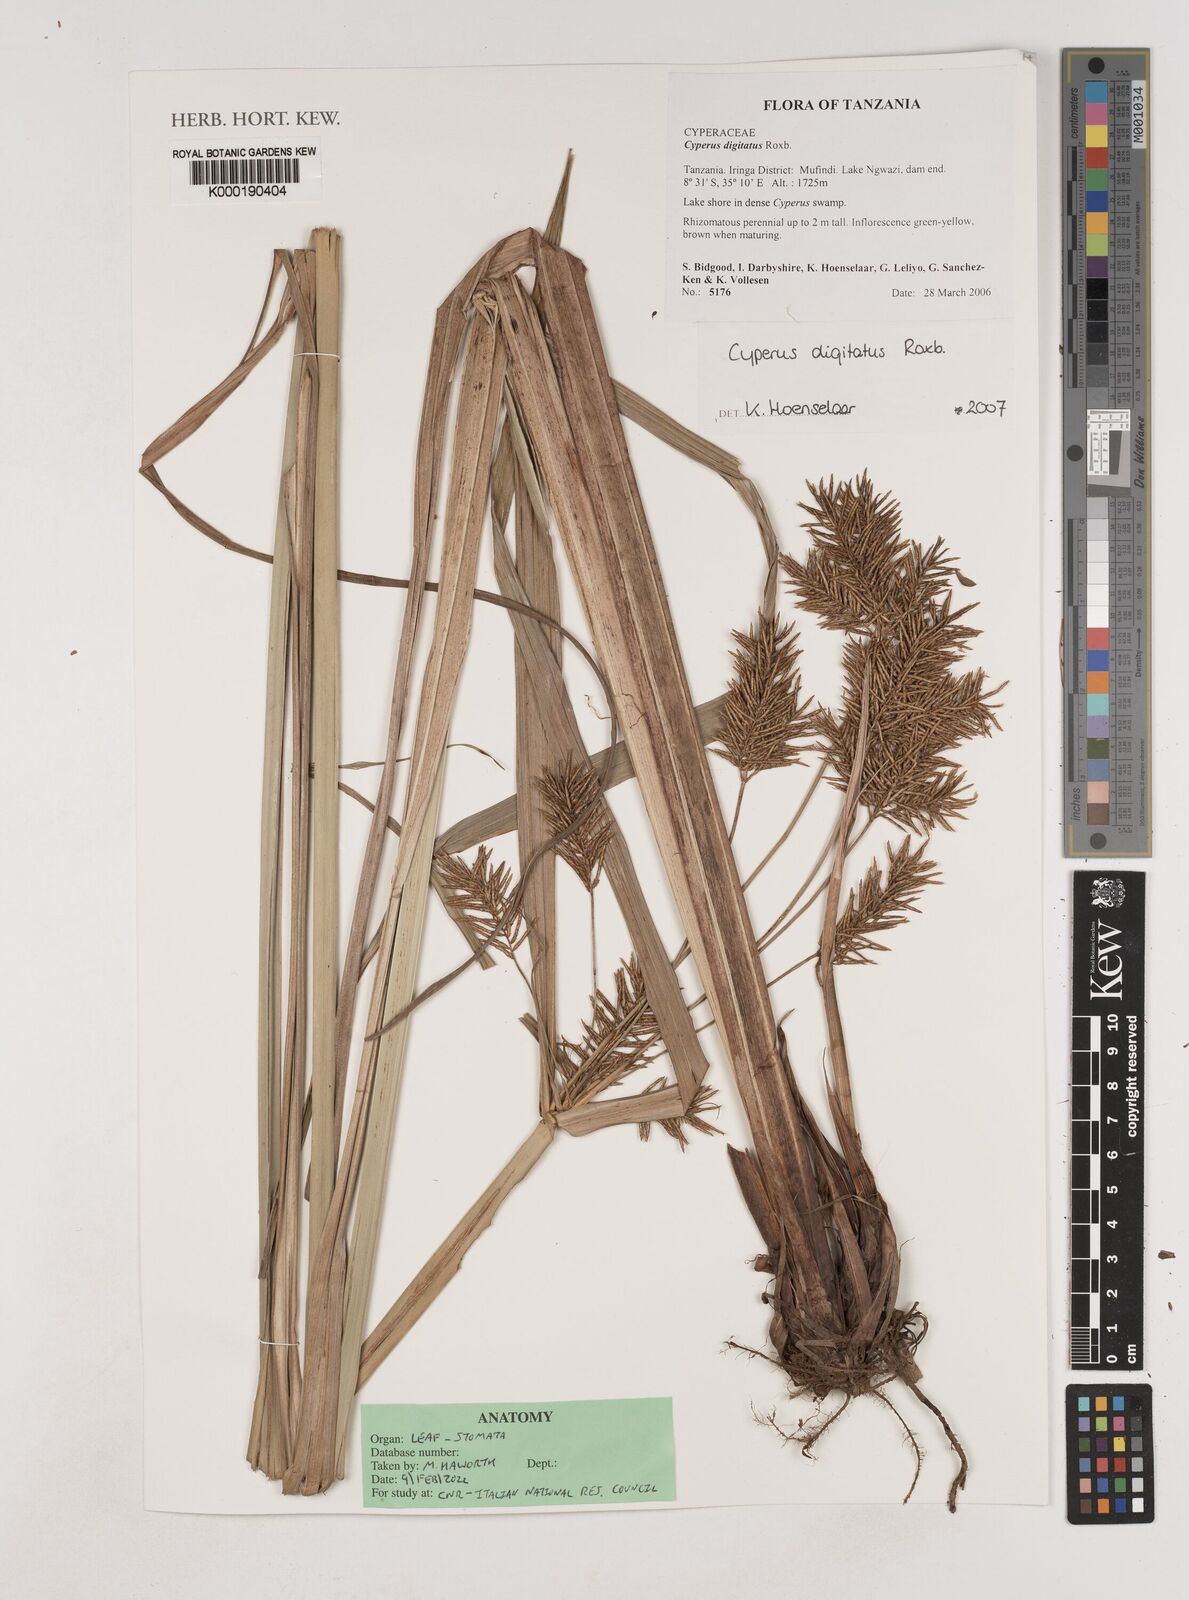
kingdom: Plantae
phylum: Tracheophyta
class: Liliopsida
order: Poales
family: Cyperaceae
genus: Cyperus
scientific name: Cyperus digitatus
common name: Finger flatsedge
